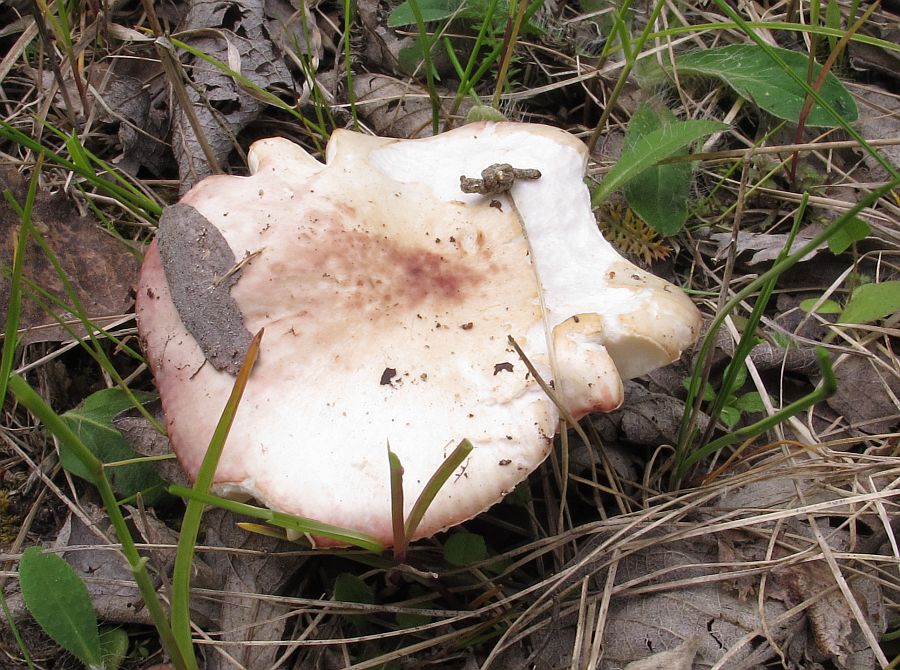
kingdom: Fungi
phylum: Basidiomycota
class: Agaricomycetes
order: Russulales
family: Russulaceae
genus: Russula
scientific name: Russula depallens
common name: falmende skørhat
